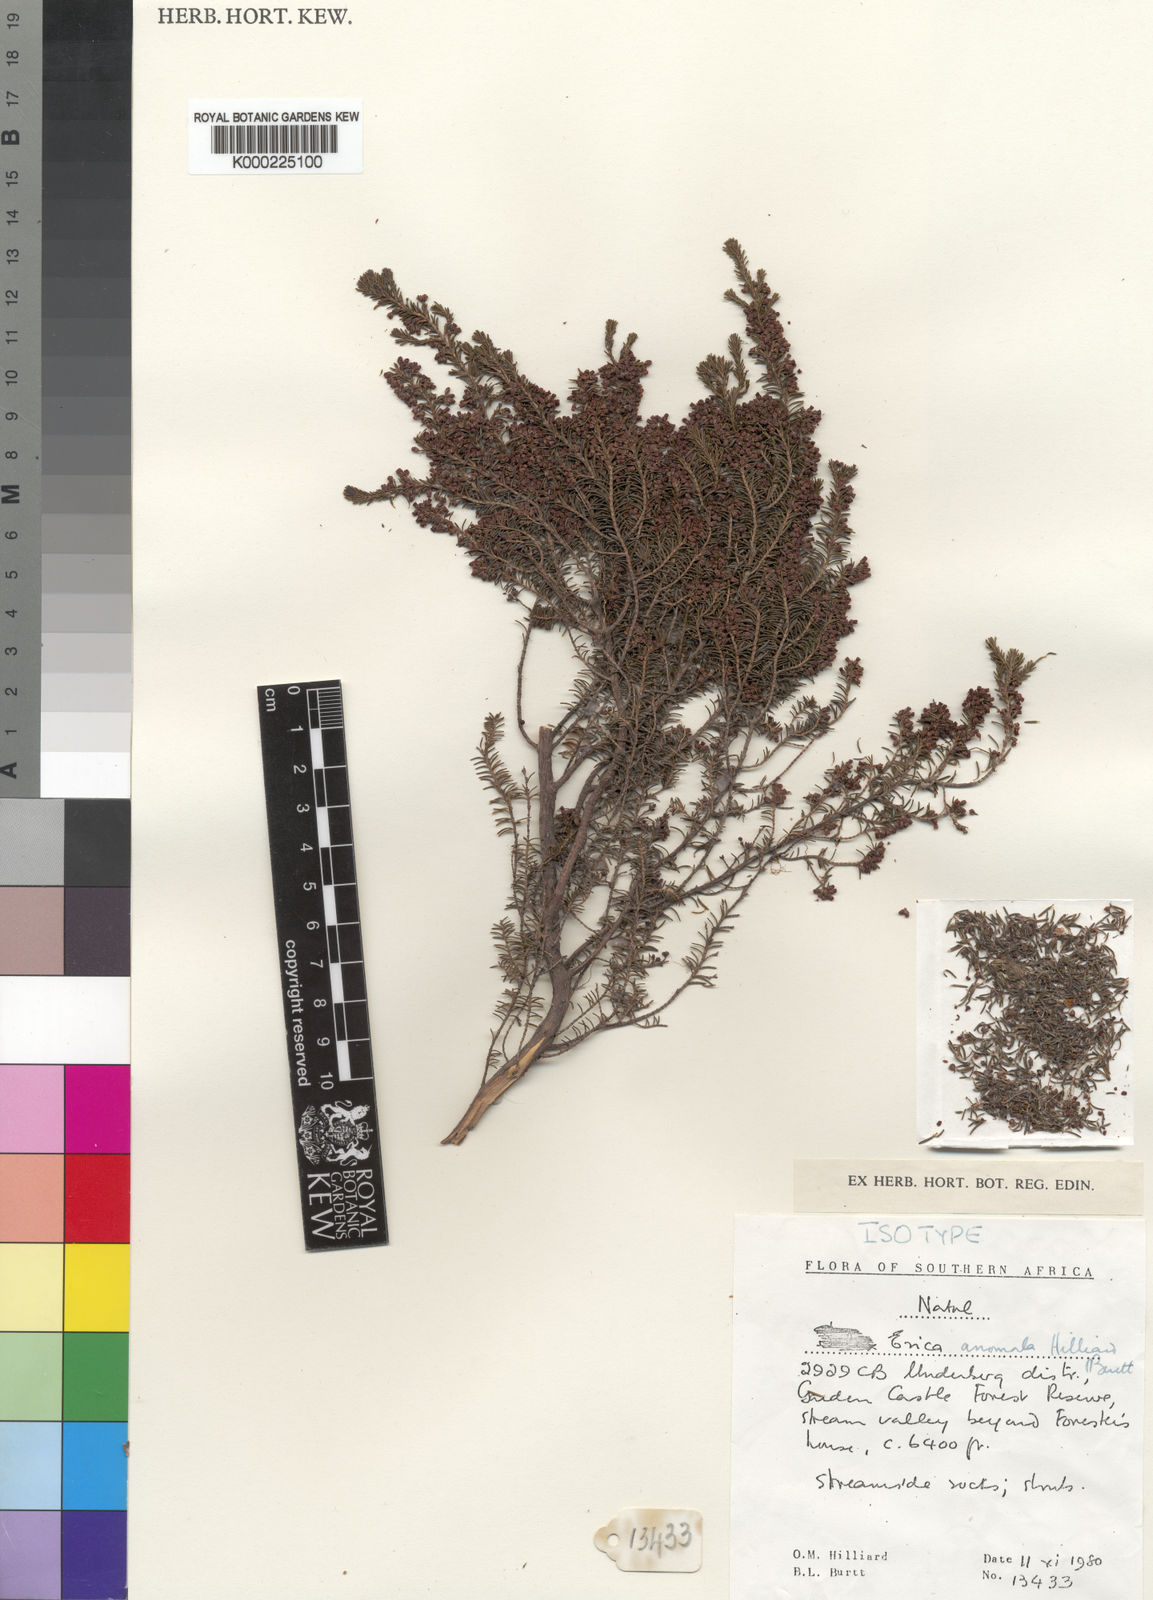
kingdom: Plantae
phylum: Tracheophyta
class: Magnoliopsida
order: Ericales
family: Ericaceae
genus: Erica
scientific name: Erica anomala
